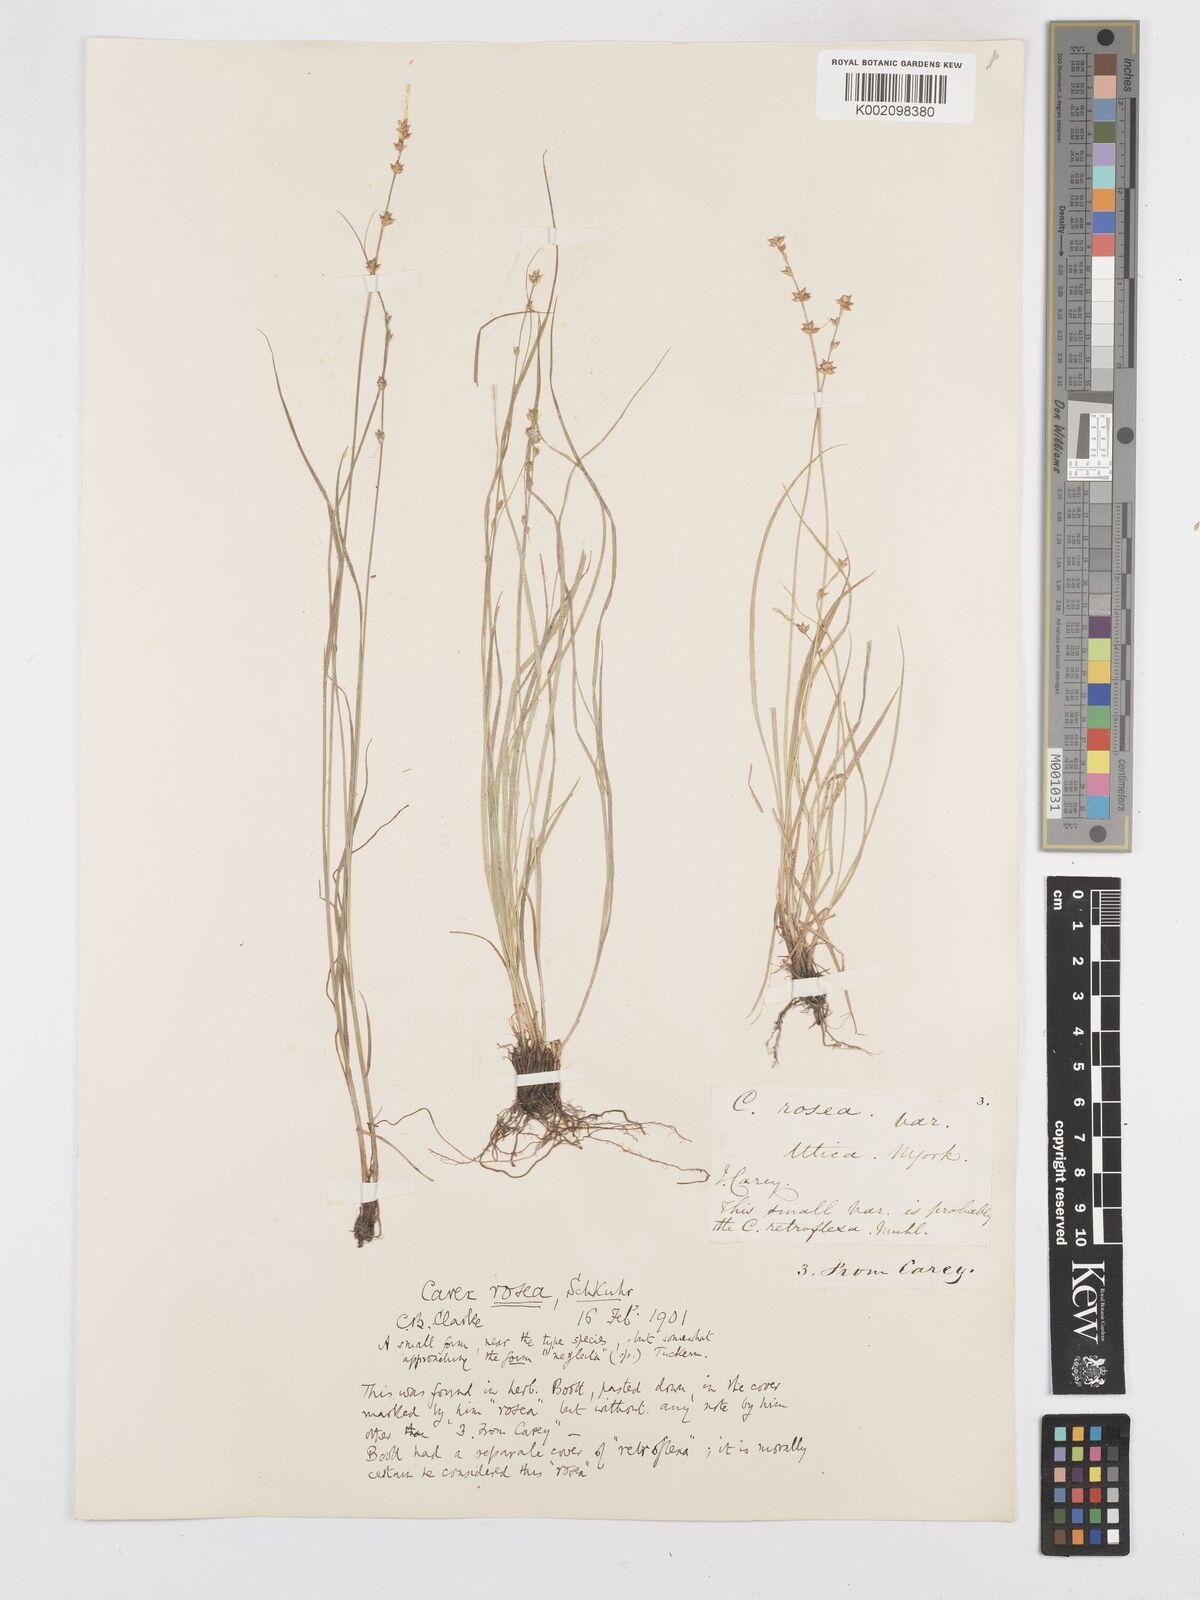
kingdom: Plantae
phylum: Tracheophyta
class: Liliopsida
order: Poales
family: Cyperaceae
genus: Carex
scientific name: Carex rosea
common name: Curly-styled wood sedge
